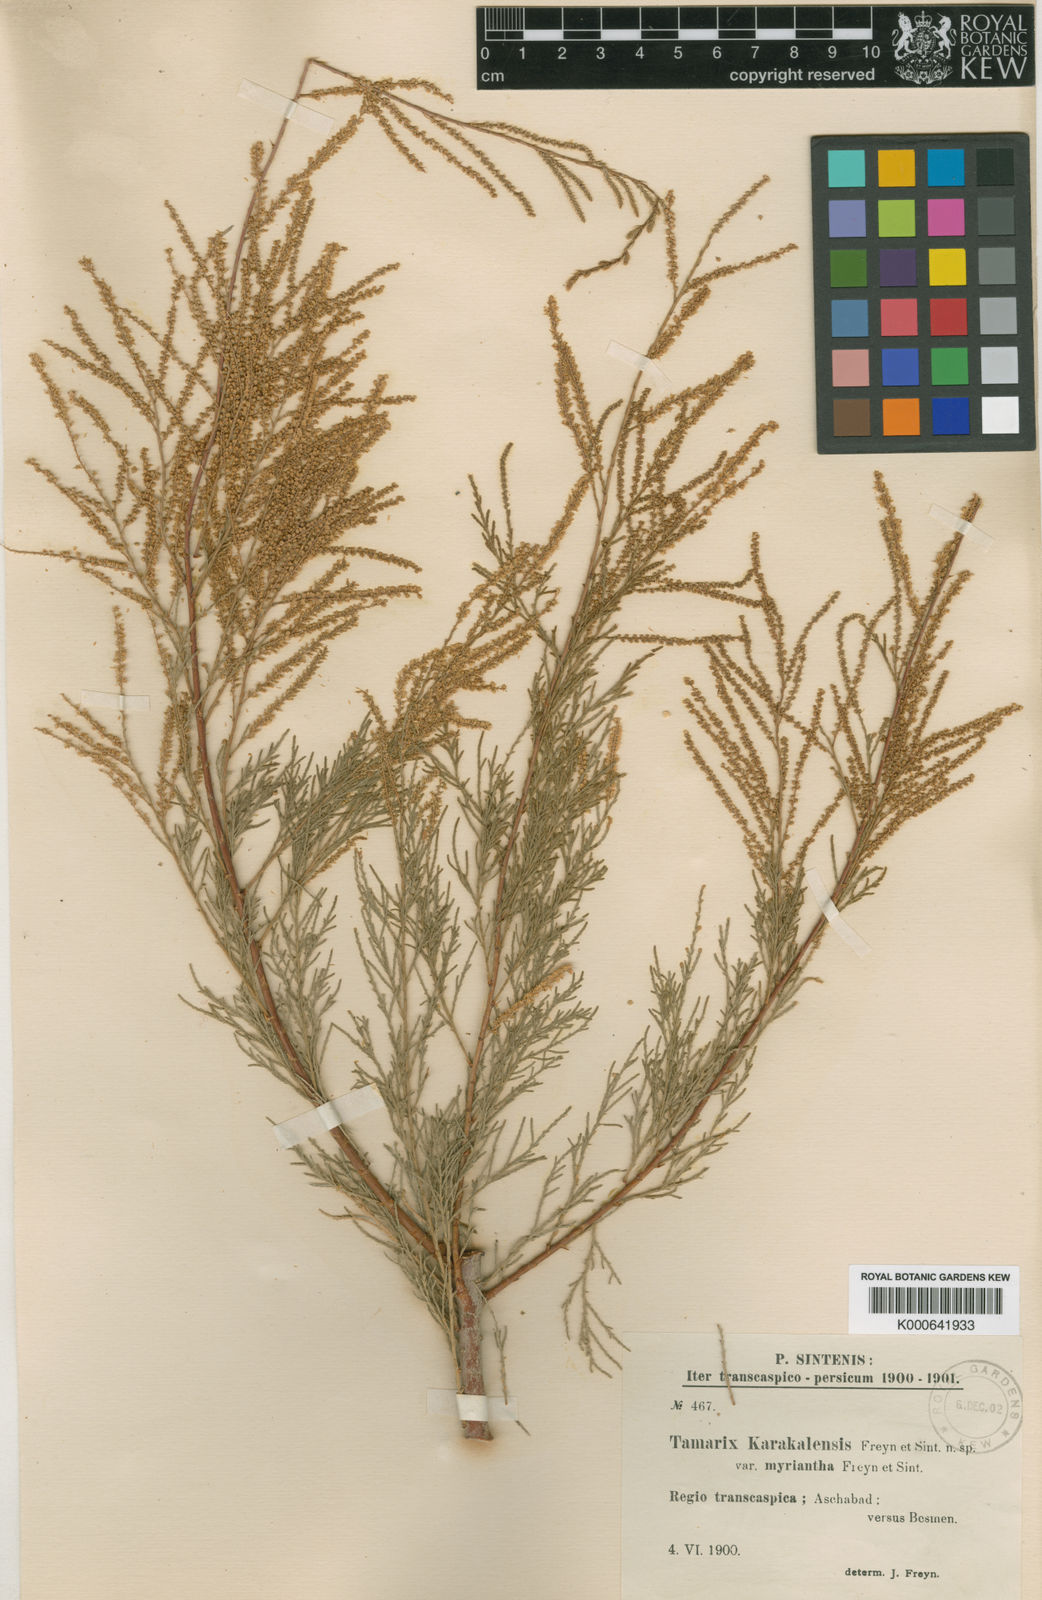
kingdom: Plantae
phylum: Tracheophyta
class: Magnoliopsida
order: Caryophyllales
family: Tamaricaceae
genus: Tamarix
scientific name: Tamarix florida
